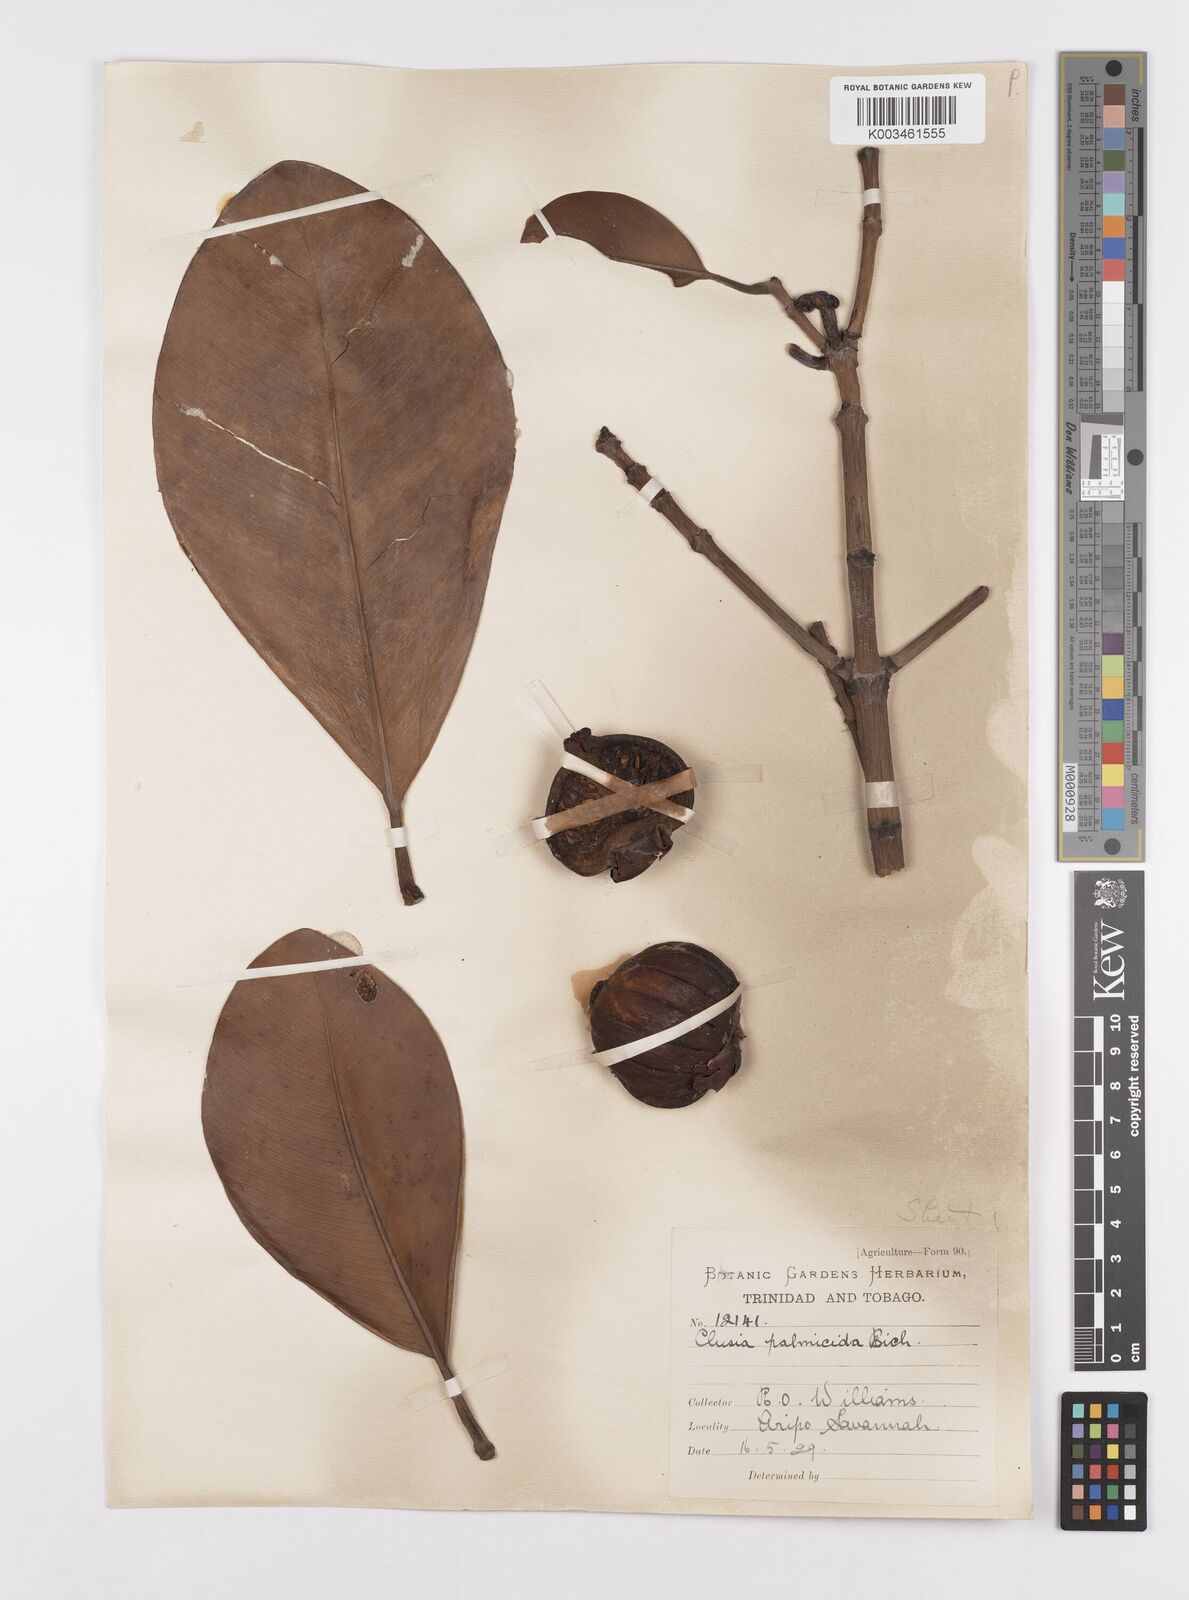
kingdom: Plantae
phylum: Tracheophyta
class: Magnoliopsida
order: Malpighiales
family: Clusiaceae
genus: Clusia
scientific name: Clusia palmicida
